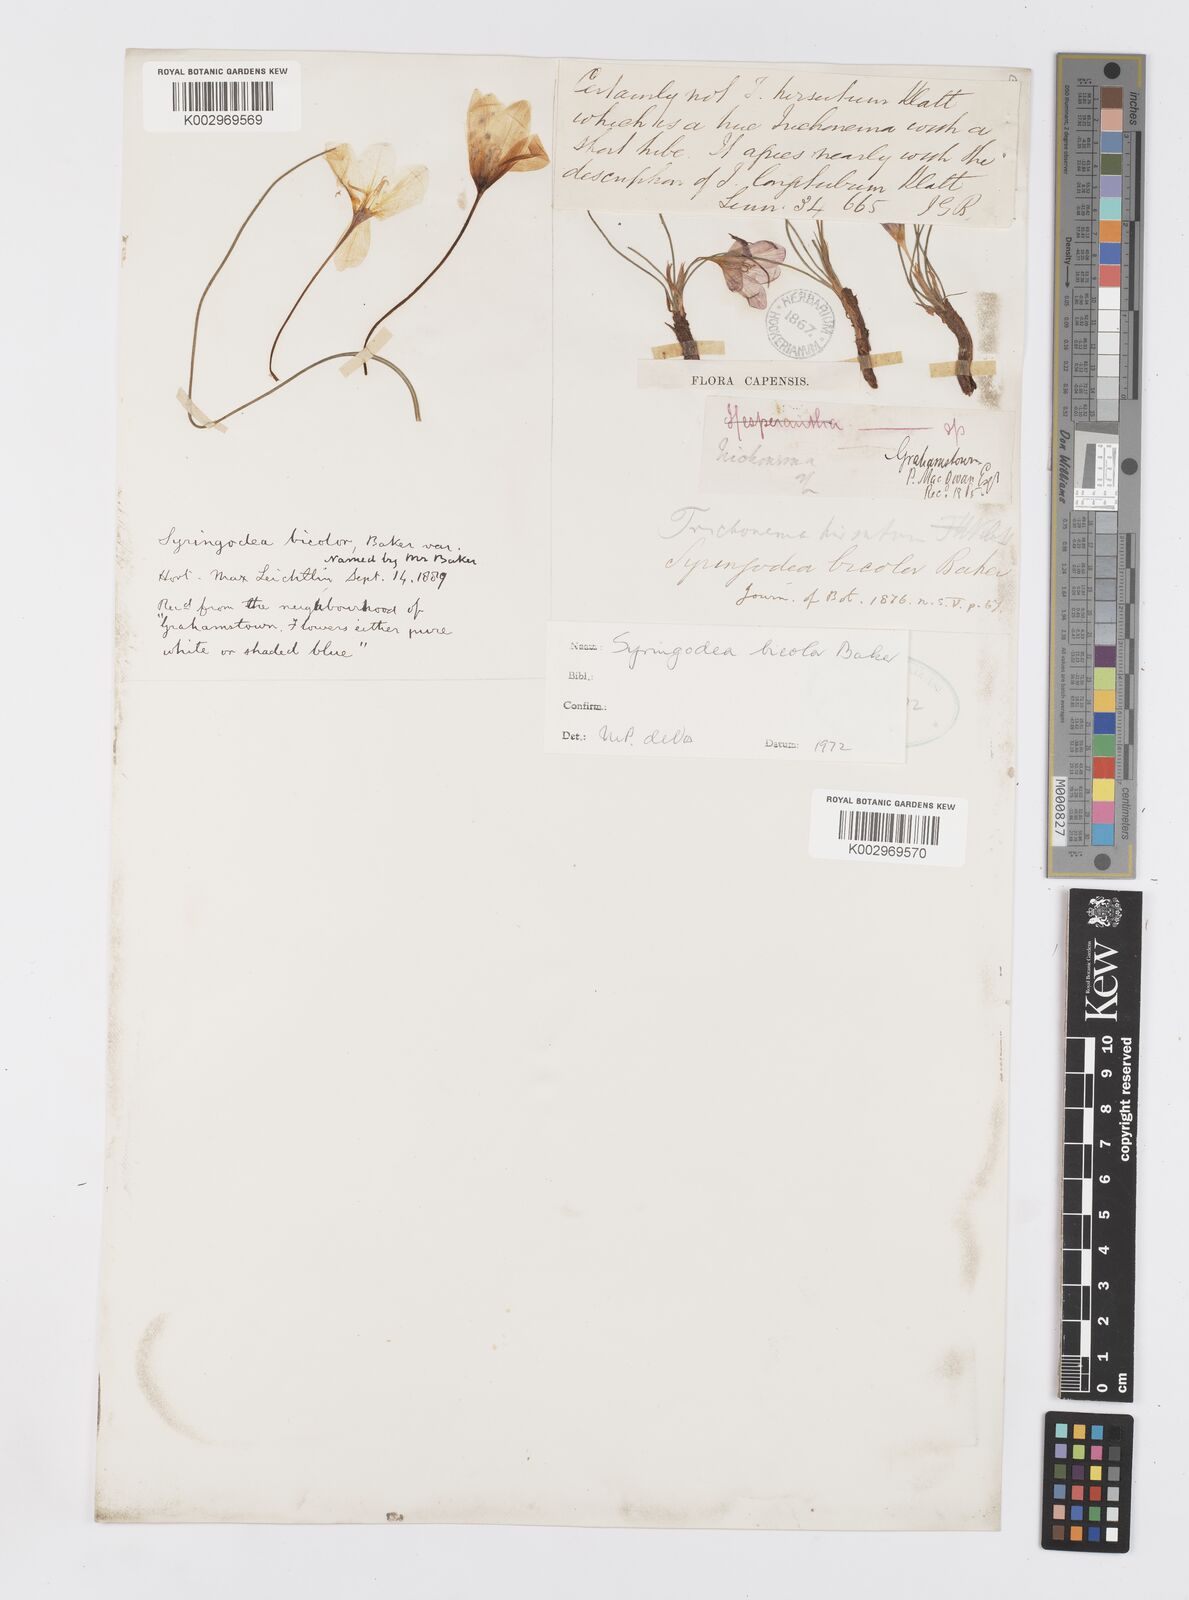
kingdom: Plantae
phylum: Tracheophyta
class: Liliopsida
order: Asparagales
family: Iridaceae
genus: Syringodea
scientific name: Syringodea bifucata
